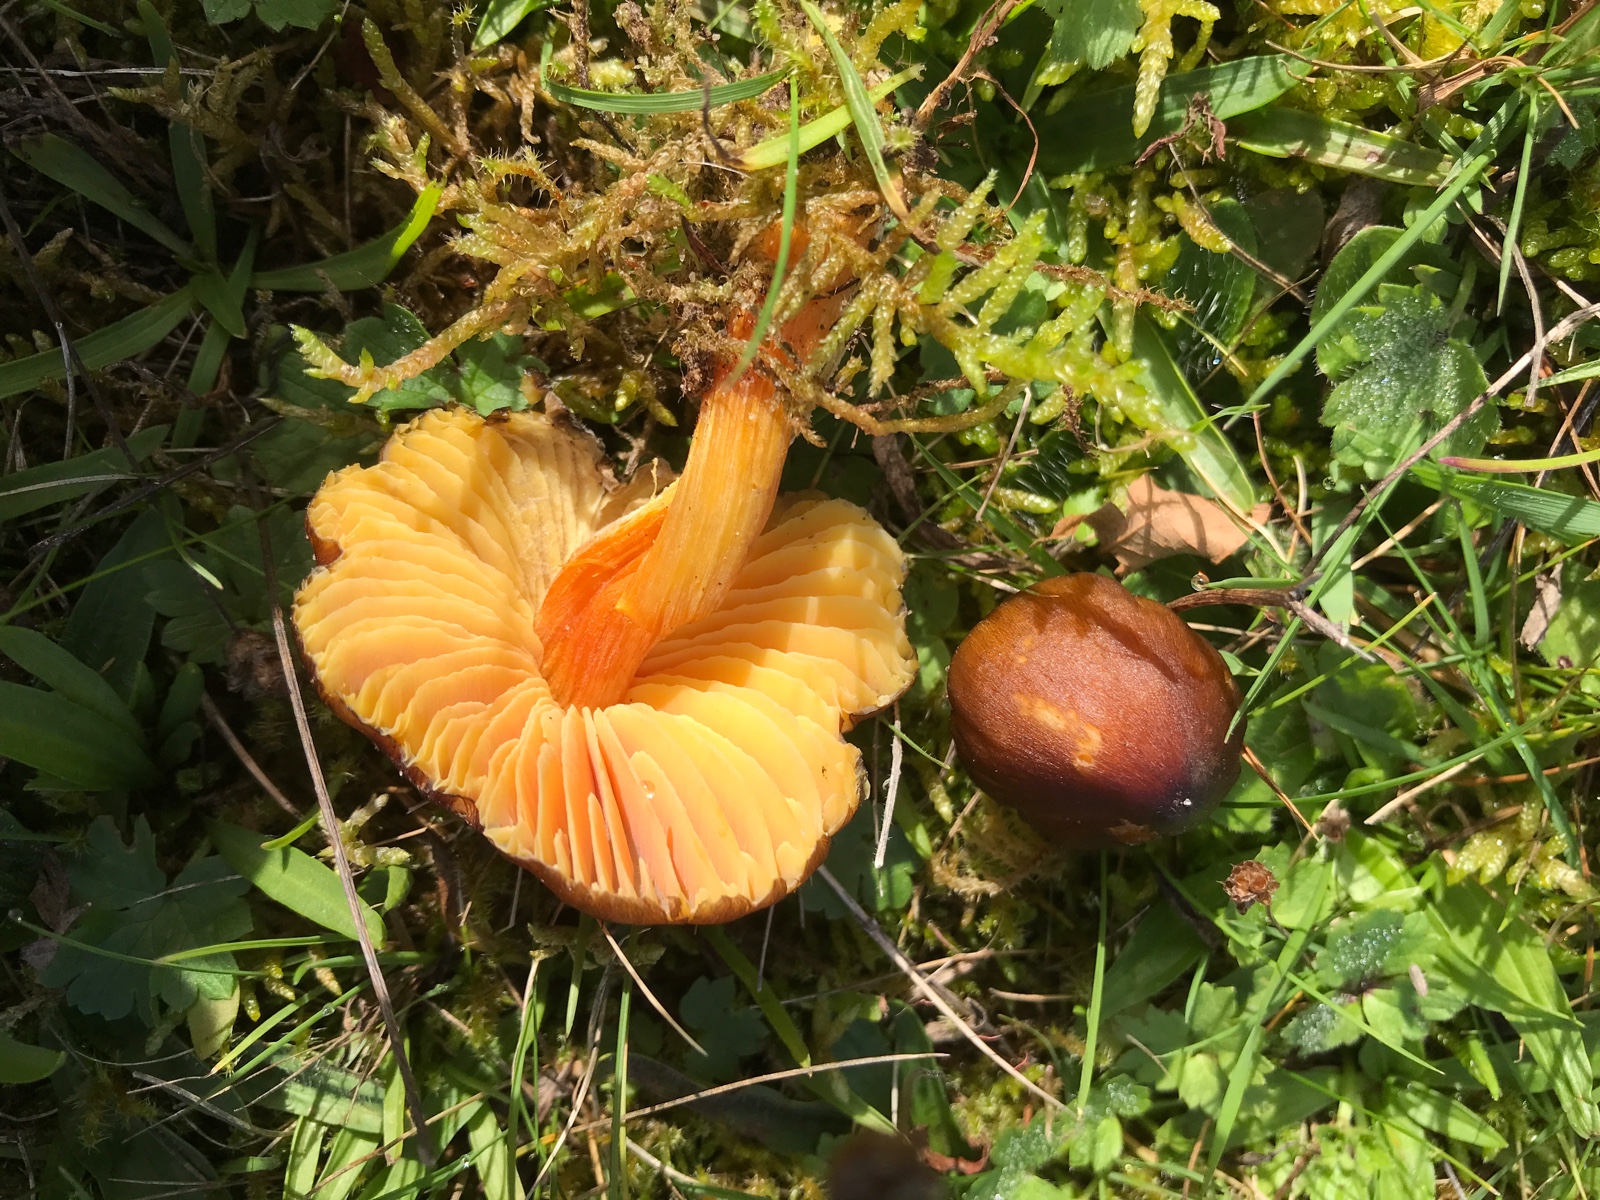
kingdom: Fungi
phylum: Basidiomycota
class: Agaricomycetes
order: Agaricales
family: Hygrophoraceae
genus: Hygrocybe
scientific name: Hygrocybe spadicea
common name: daddelbrun vokshat
